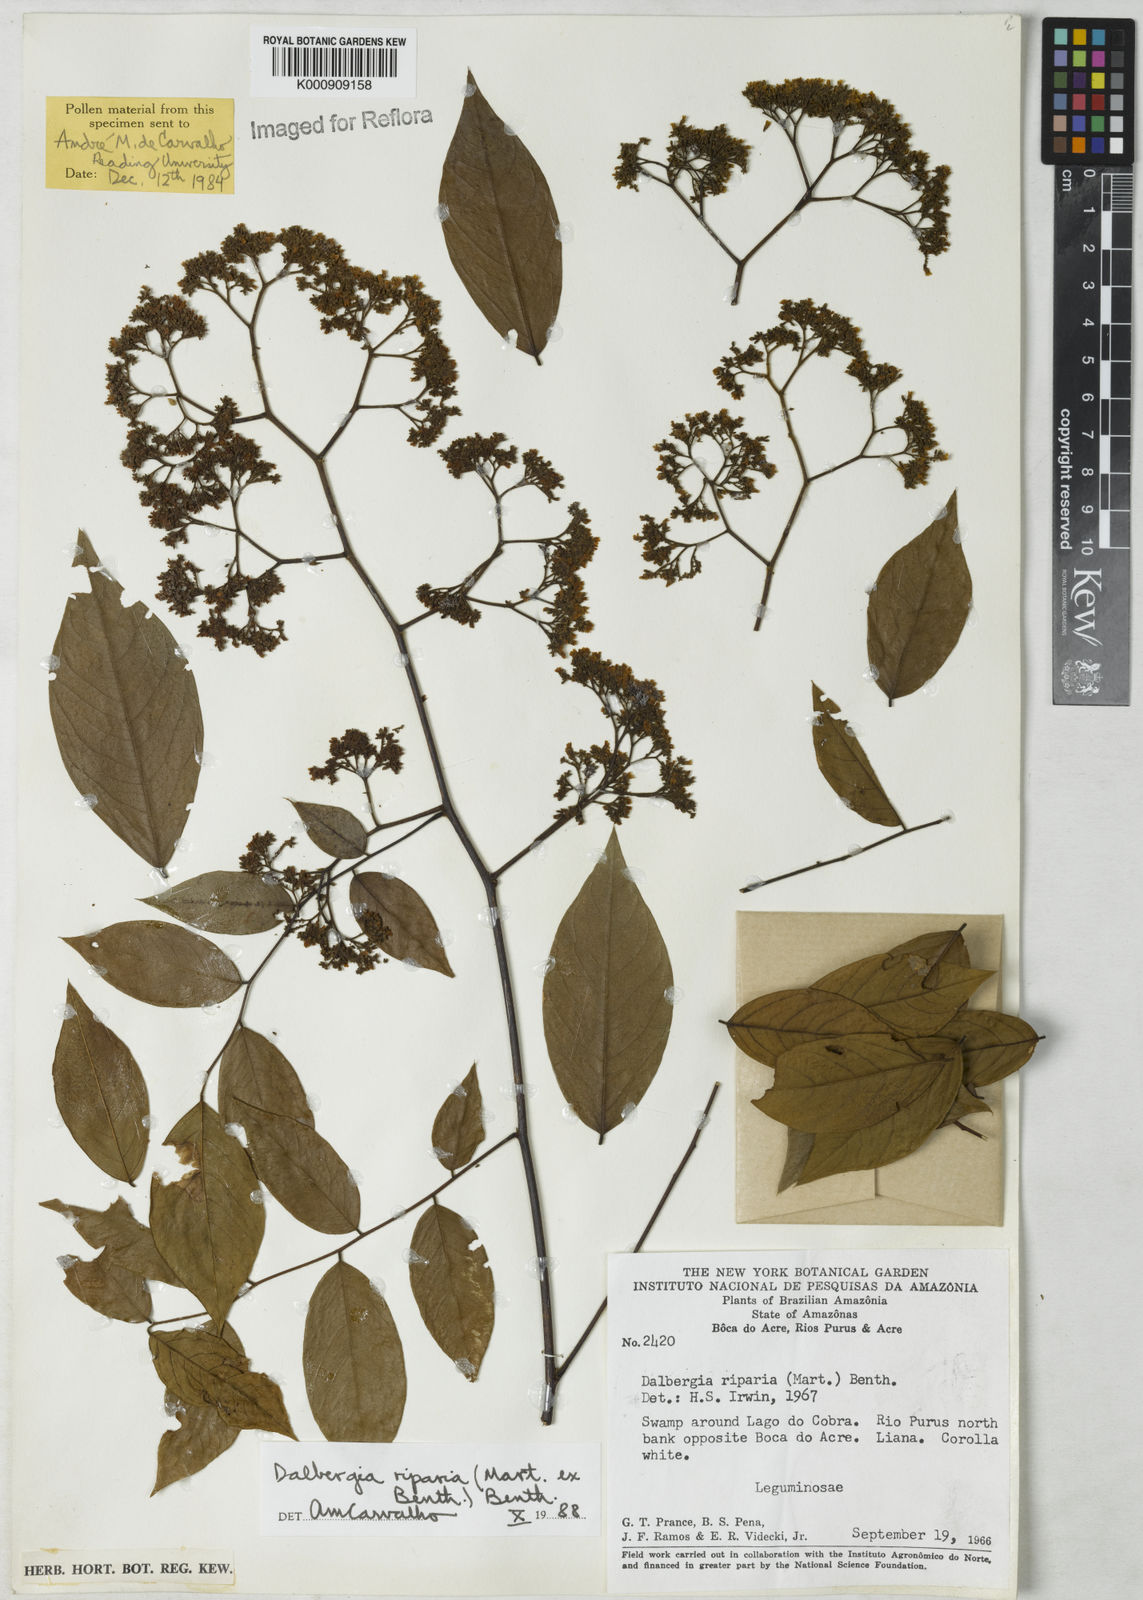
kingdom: Plantae
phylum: Tracheophyta
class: Magnoliopsida
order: Fabales
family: Fabaceae
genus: Dalbergia
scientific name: Dalbergia riparia
